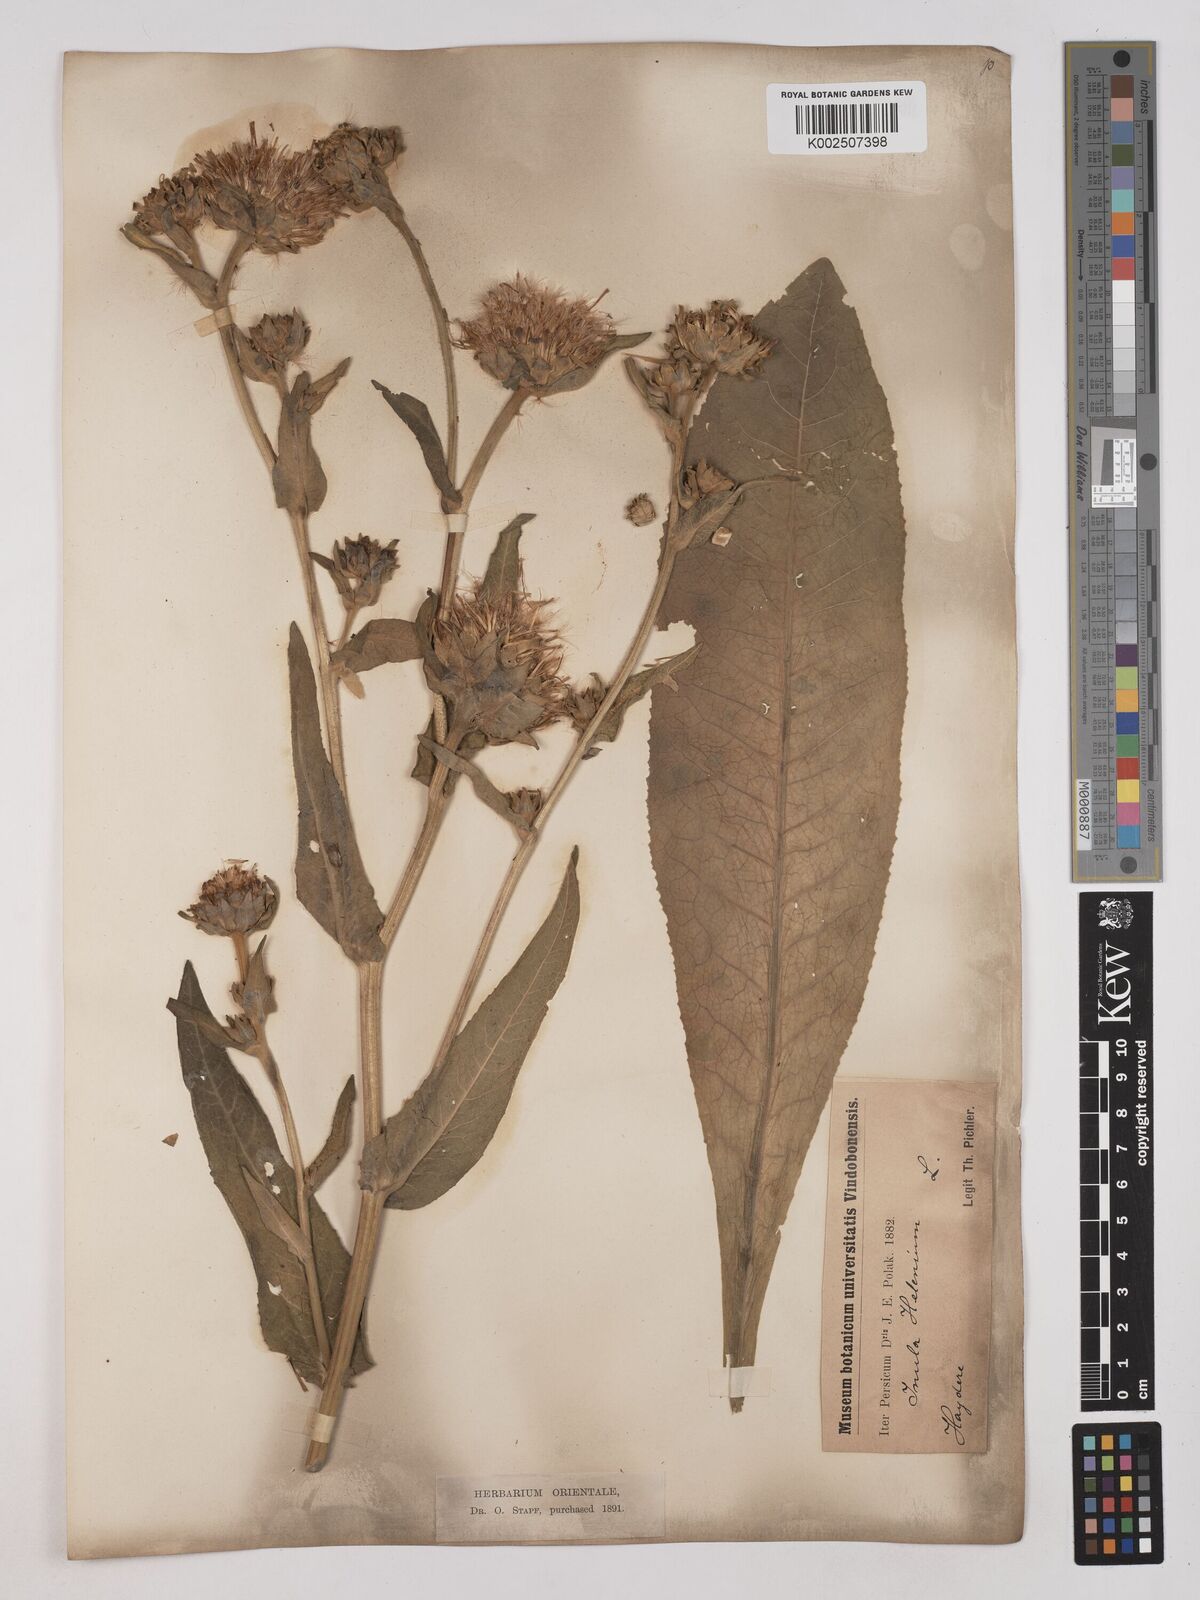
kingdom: Plantae
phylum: Tracheophyta
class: Magnoliopsida
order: Asterales
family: Asteraceae
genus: Inula
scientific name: Inula helenium
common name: Elecampane
